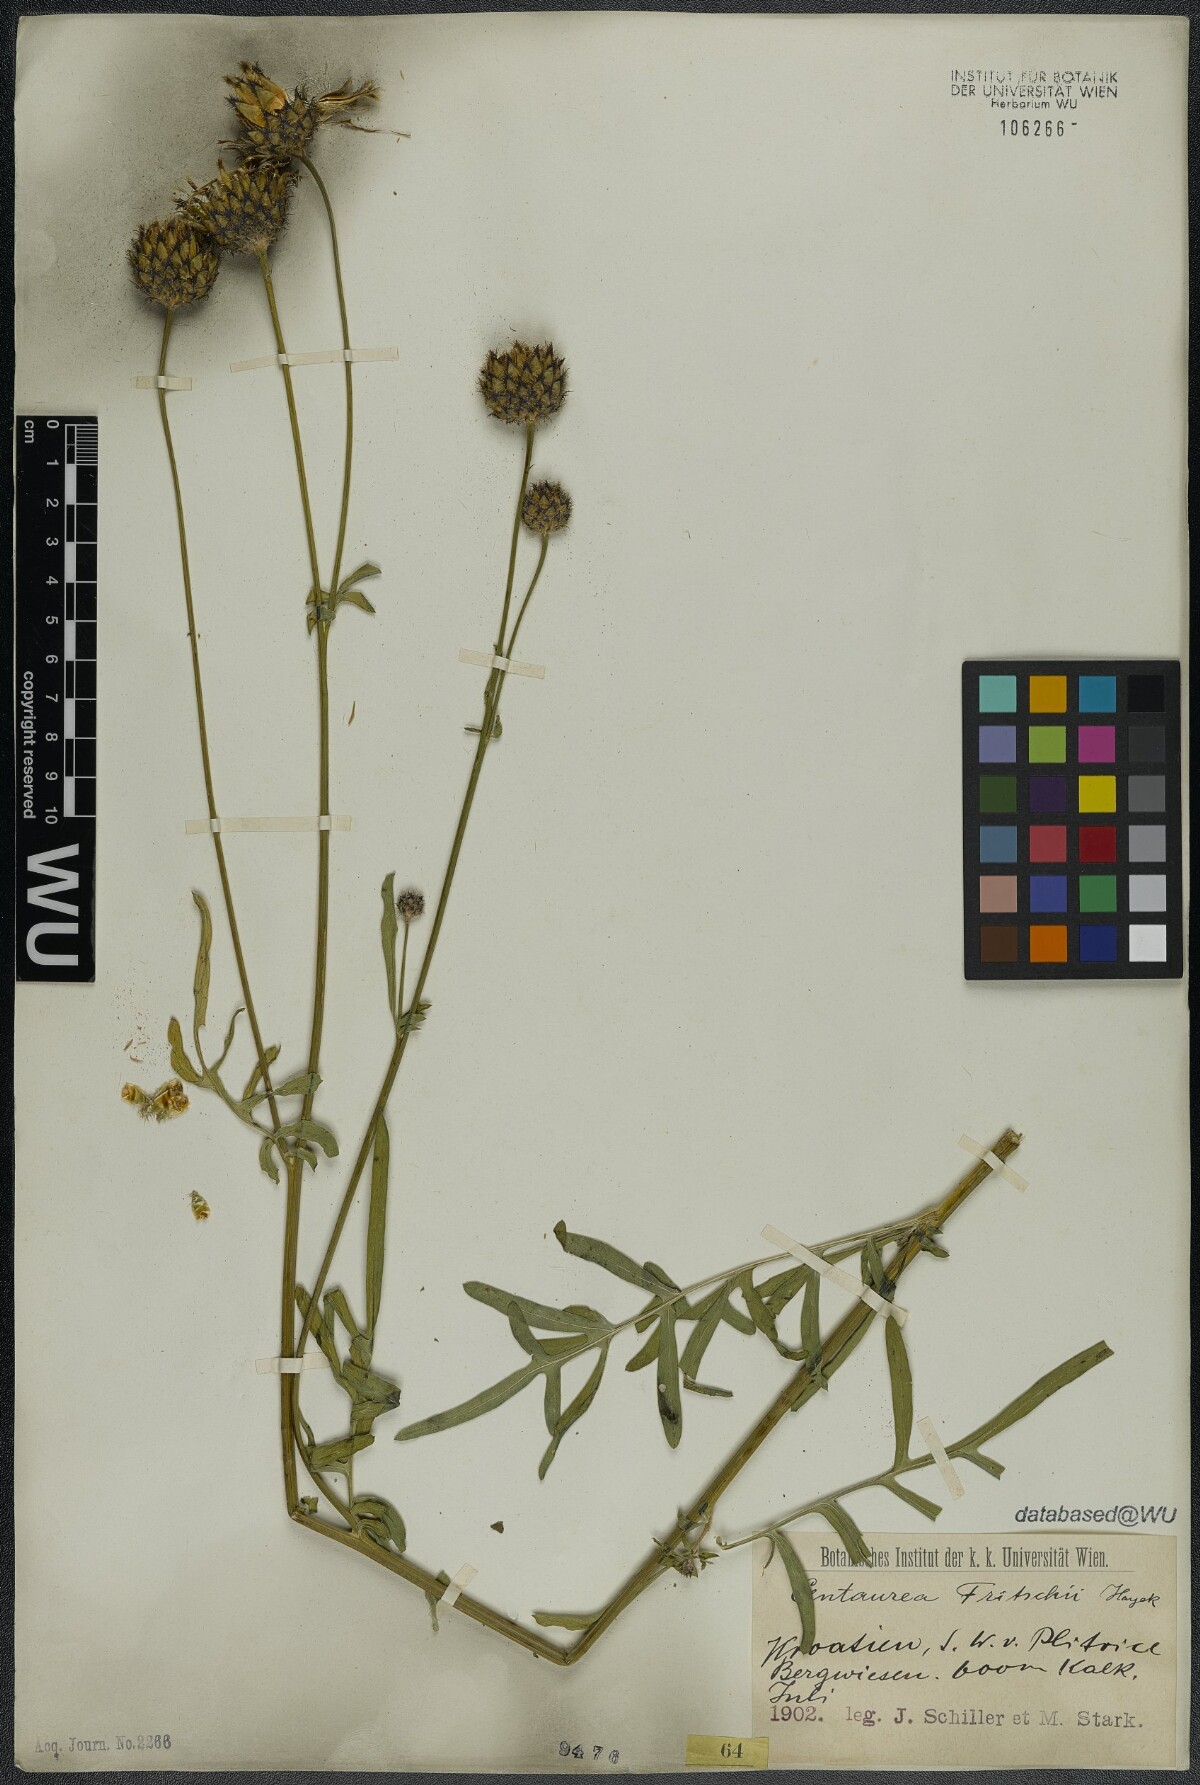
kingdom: Plantae
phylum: Tracheophyta
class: Magnoliopsida
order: Asterales
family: Asteraceae
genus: Centaurea
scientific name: Centaurea scabiosa
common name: Greater knapweed
